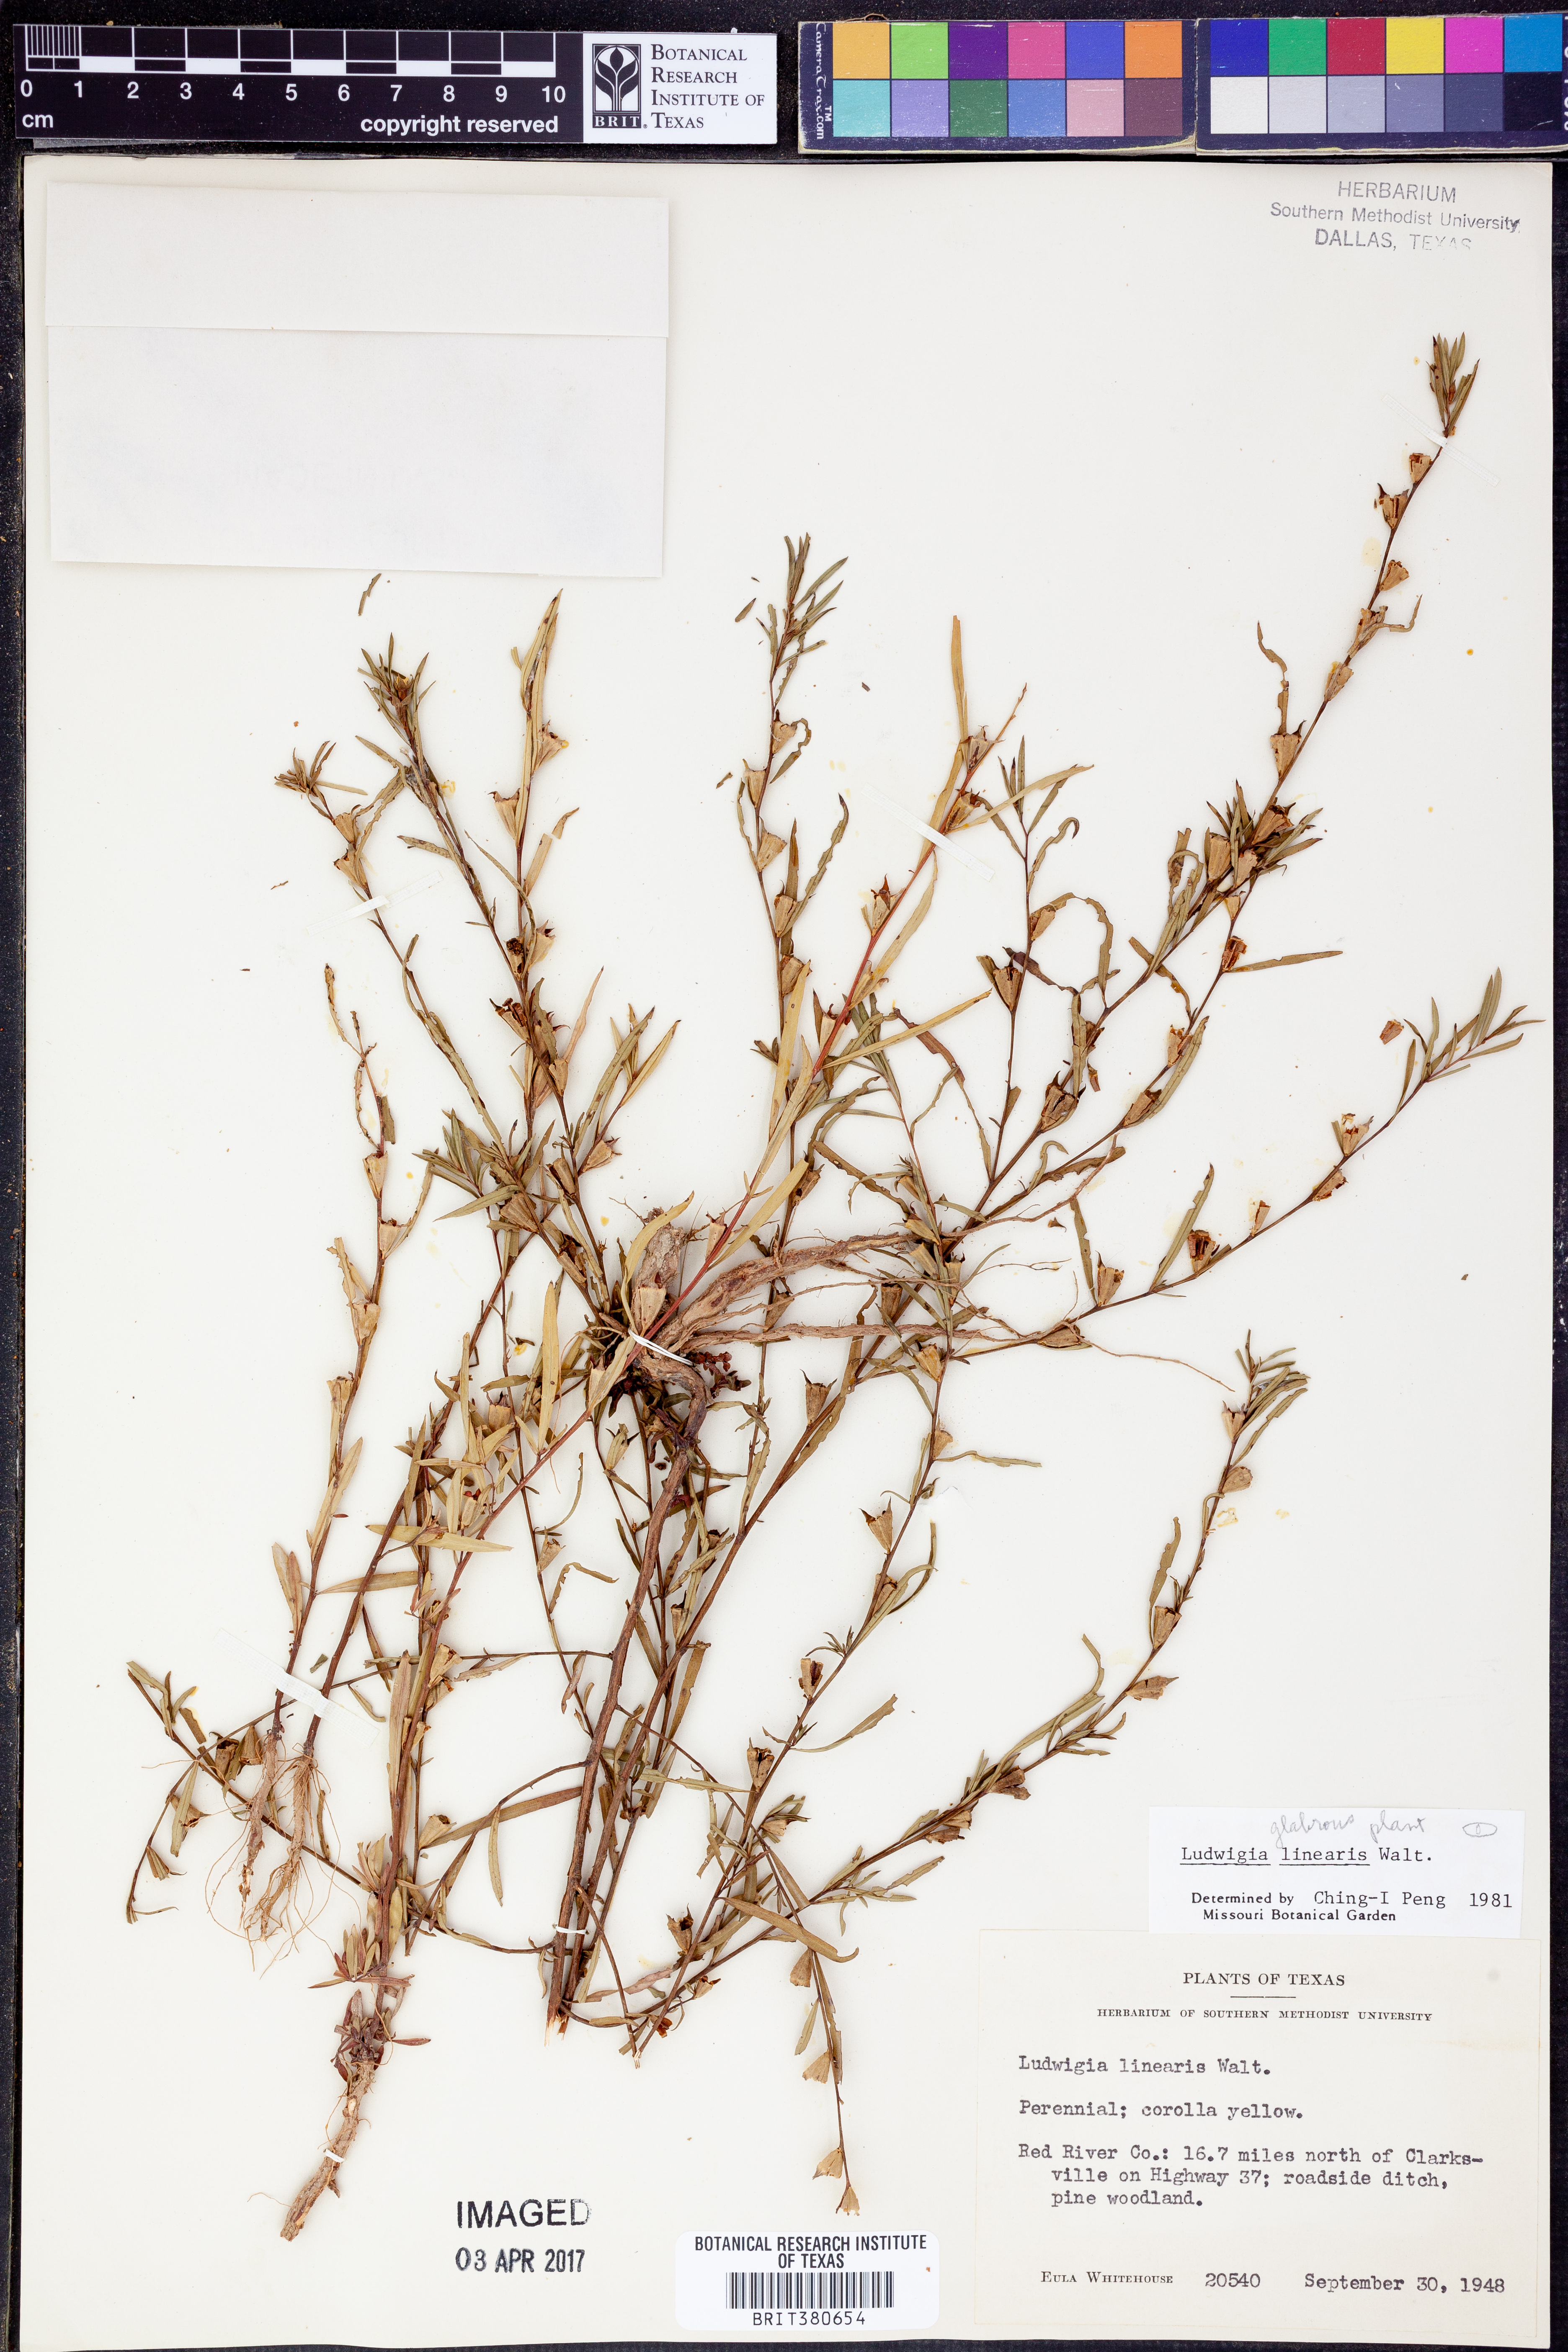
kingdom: Plantae
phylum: Tracheophyta
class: Magnoliopsida
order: Myrtales
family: Onagraceae
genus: Ludwigia
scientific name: Ludwigia linearis
